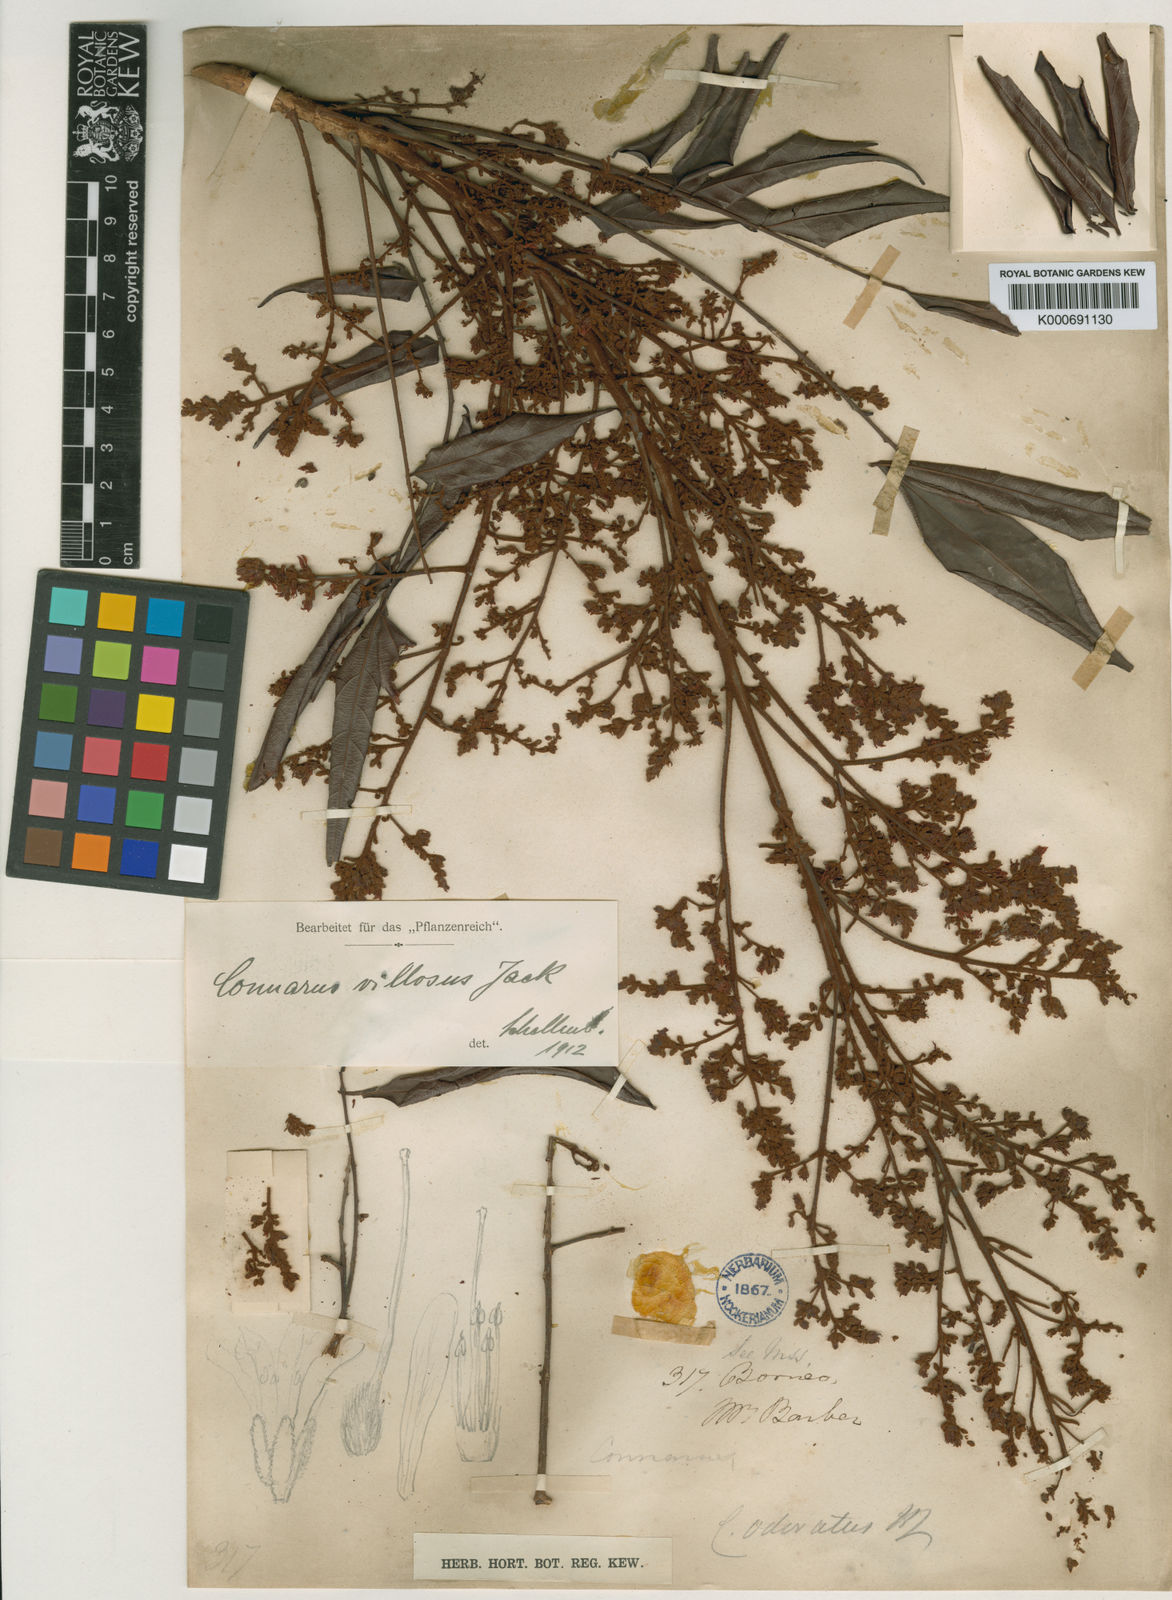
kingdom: Plantae
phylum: Tracheophyta
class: Magnoliopsida
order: Oxalidales
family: Connaraceae
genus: Connarus
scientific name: Connarus villosus
